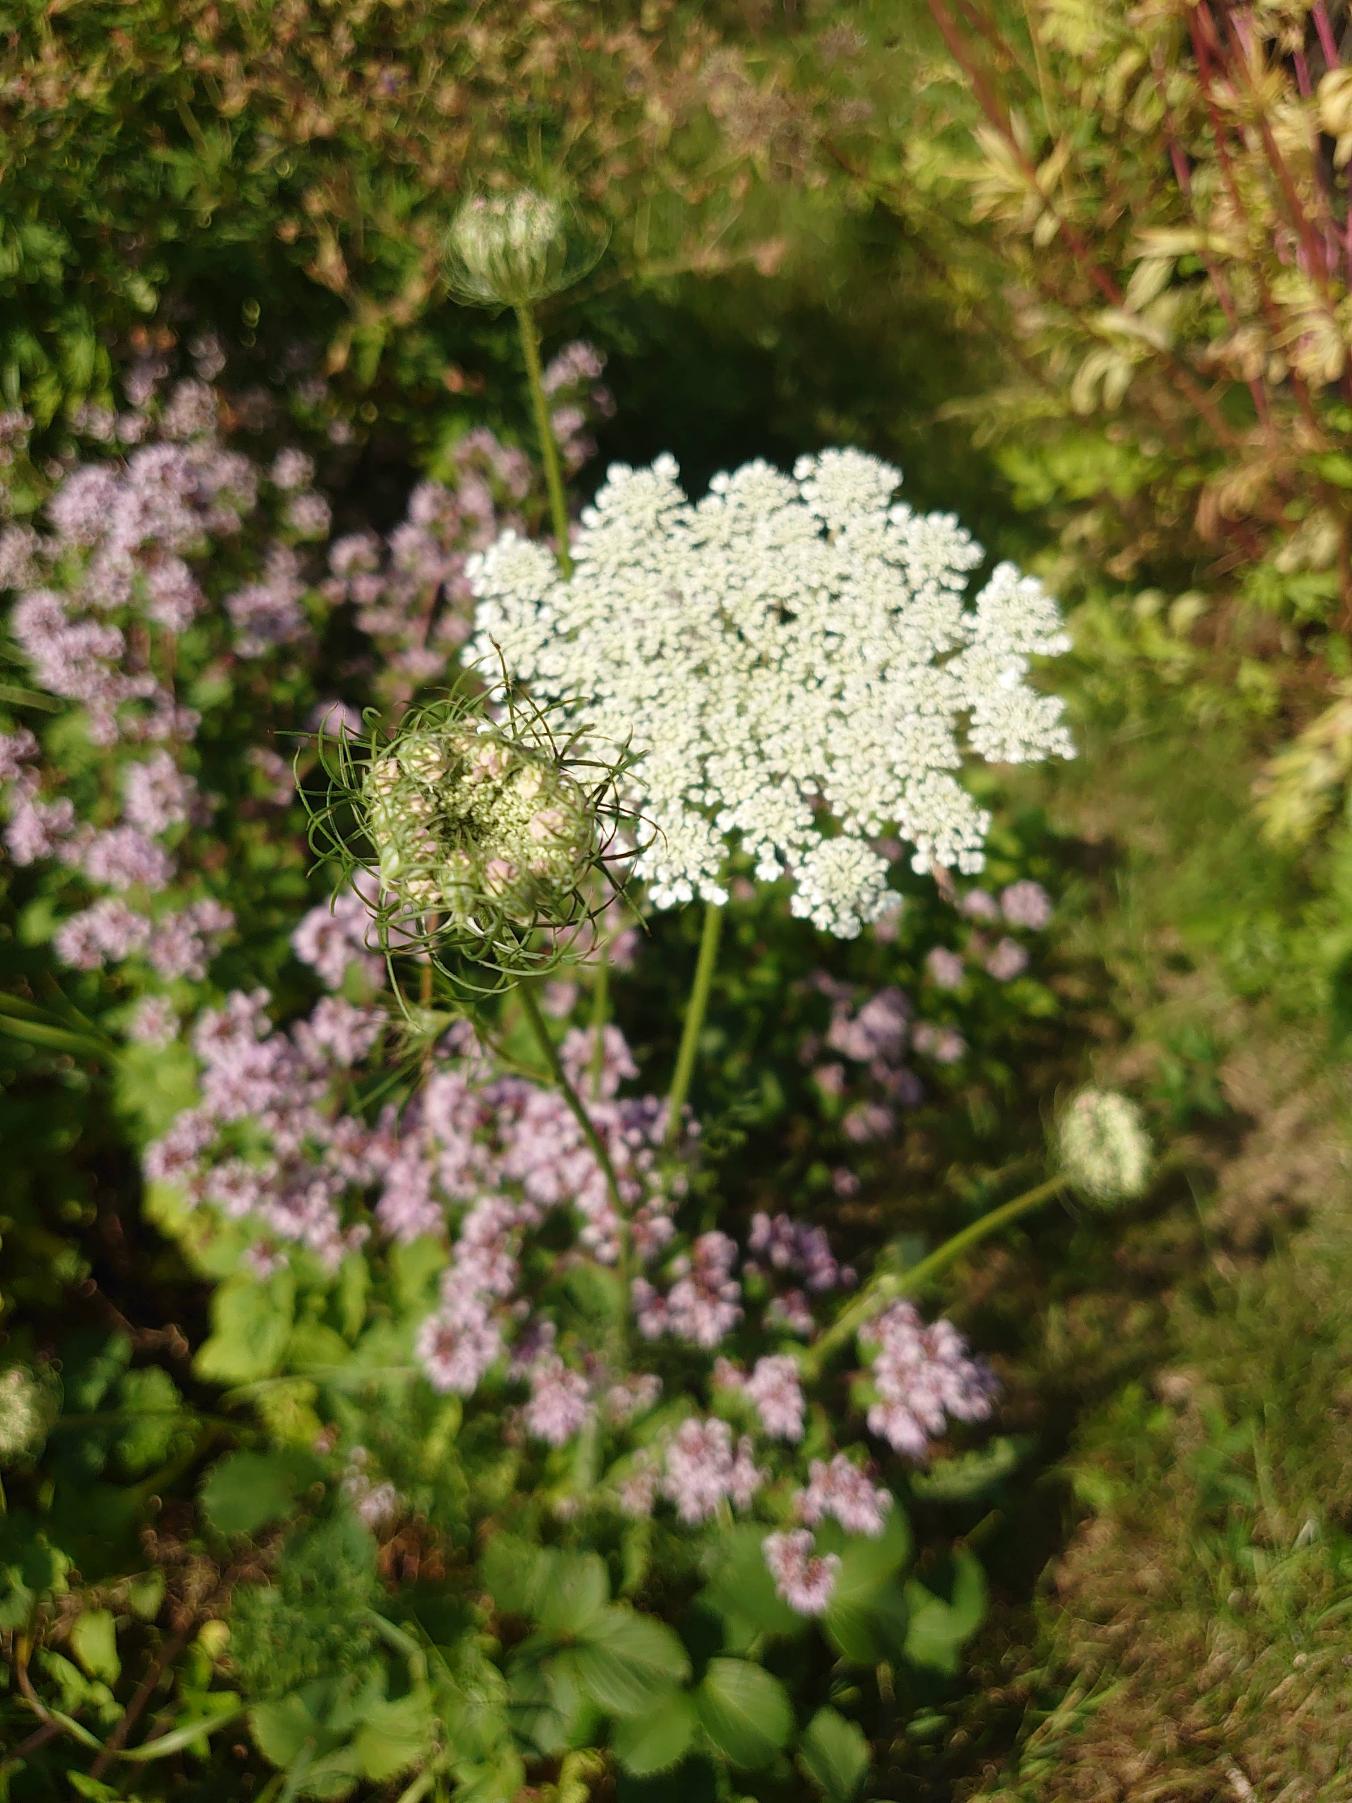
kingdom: Plantae
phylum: Tracheophyta
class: Magnoliopsida
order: Apiales
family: Apiaceae
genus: Daucus
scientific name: Daucus carota
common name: Gulerod
